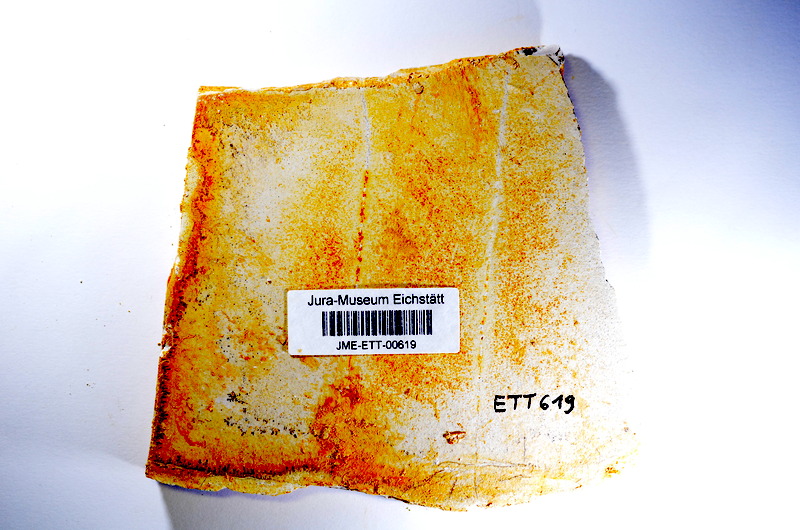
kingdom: Animalia
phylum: Chordata
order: Salmoniformes
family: Orthogonikleithridae
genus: Orthogonikleithrus
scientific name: Orthogonikleithrus hoelli
